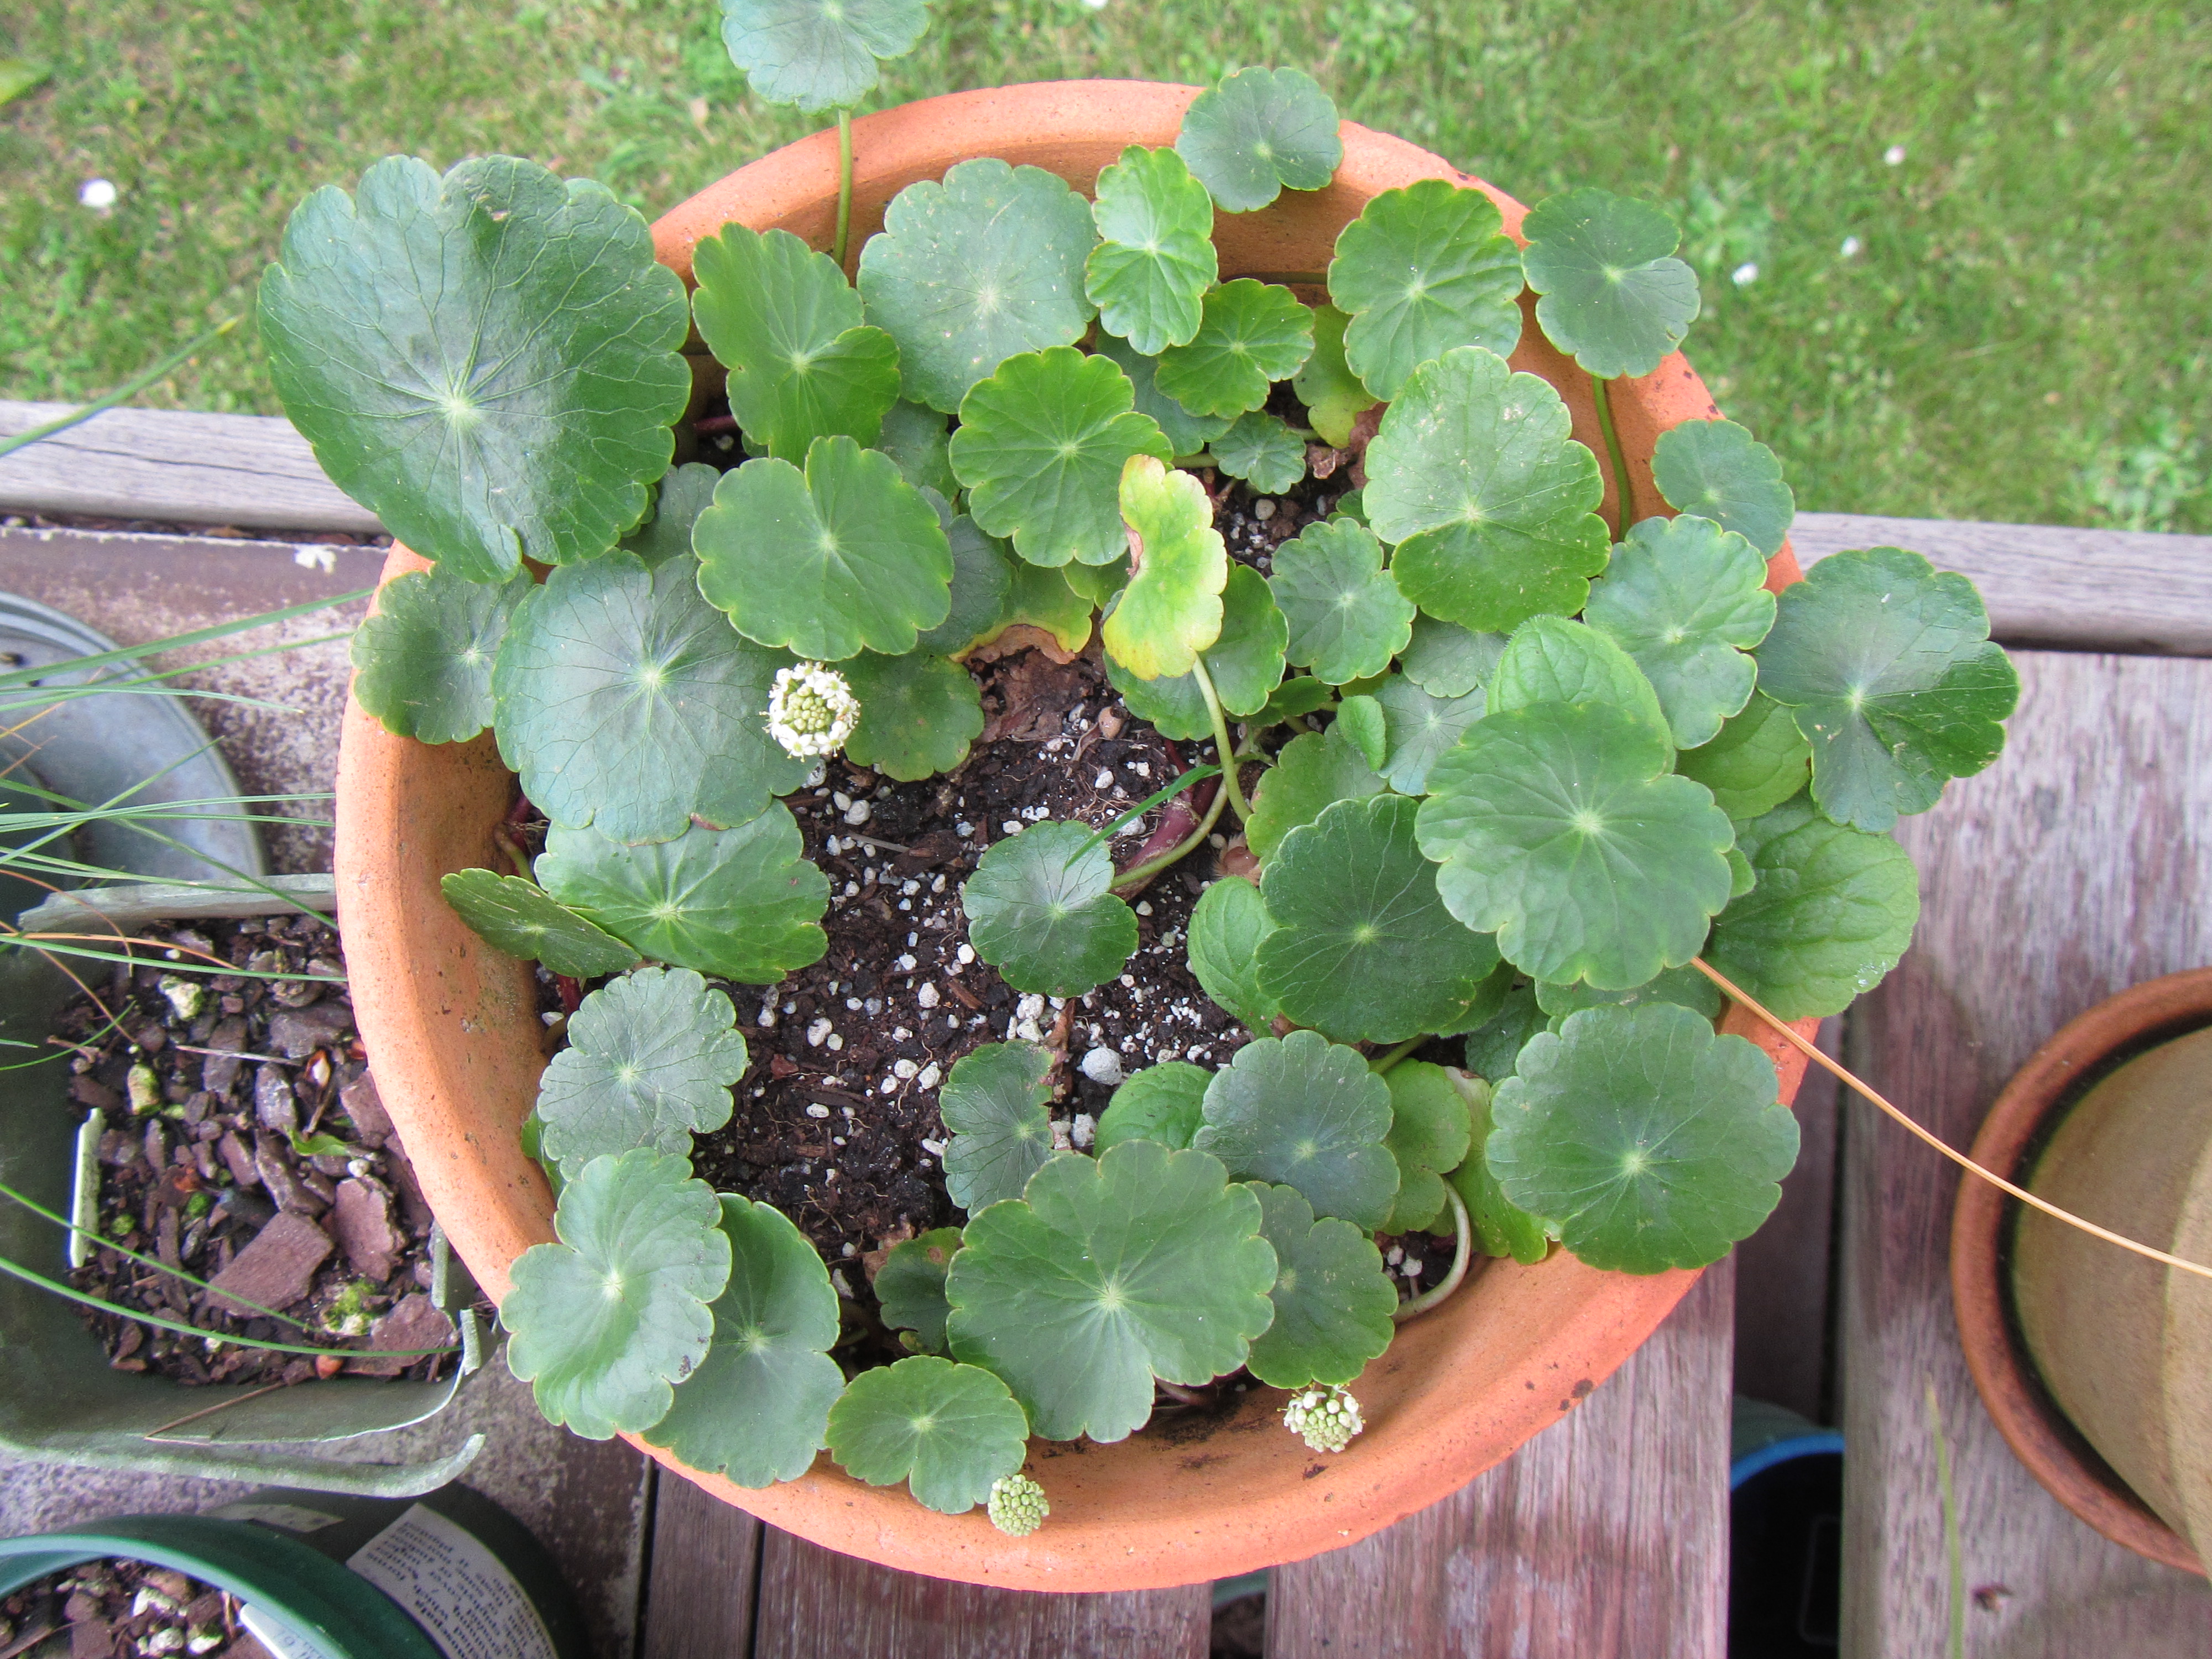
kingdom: Plantae
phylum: Tracheophyta
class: Magnoliopsida
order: Apiales
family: Araliaceae
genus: Hydrocotyle
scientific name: Hydrocotyle bonariensis
